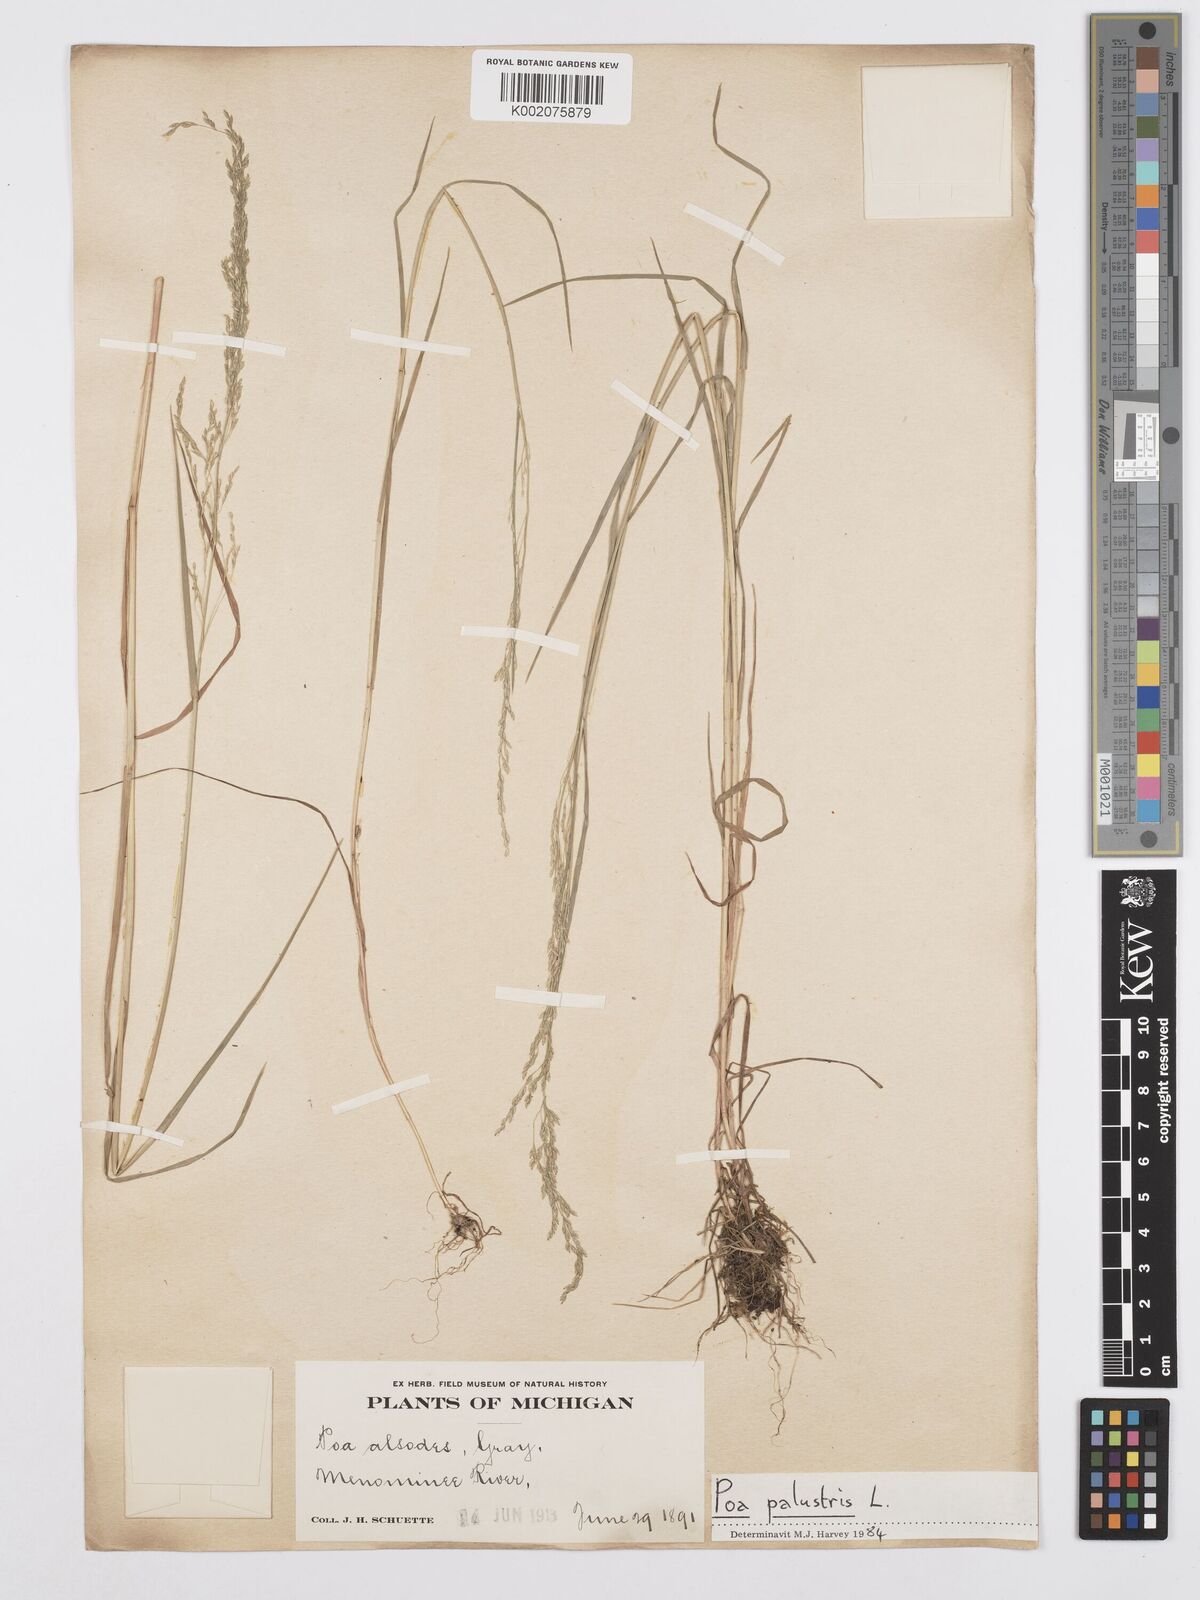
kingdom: Plantae
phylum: Tracheophyta
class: Liliopsida
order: Poales
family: Poaceae
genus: Poa
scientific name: Poa alsodes
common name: Grove bluegrass
